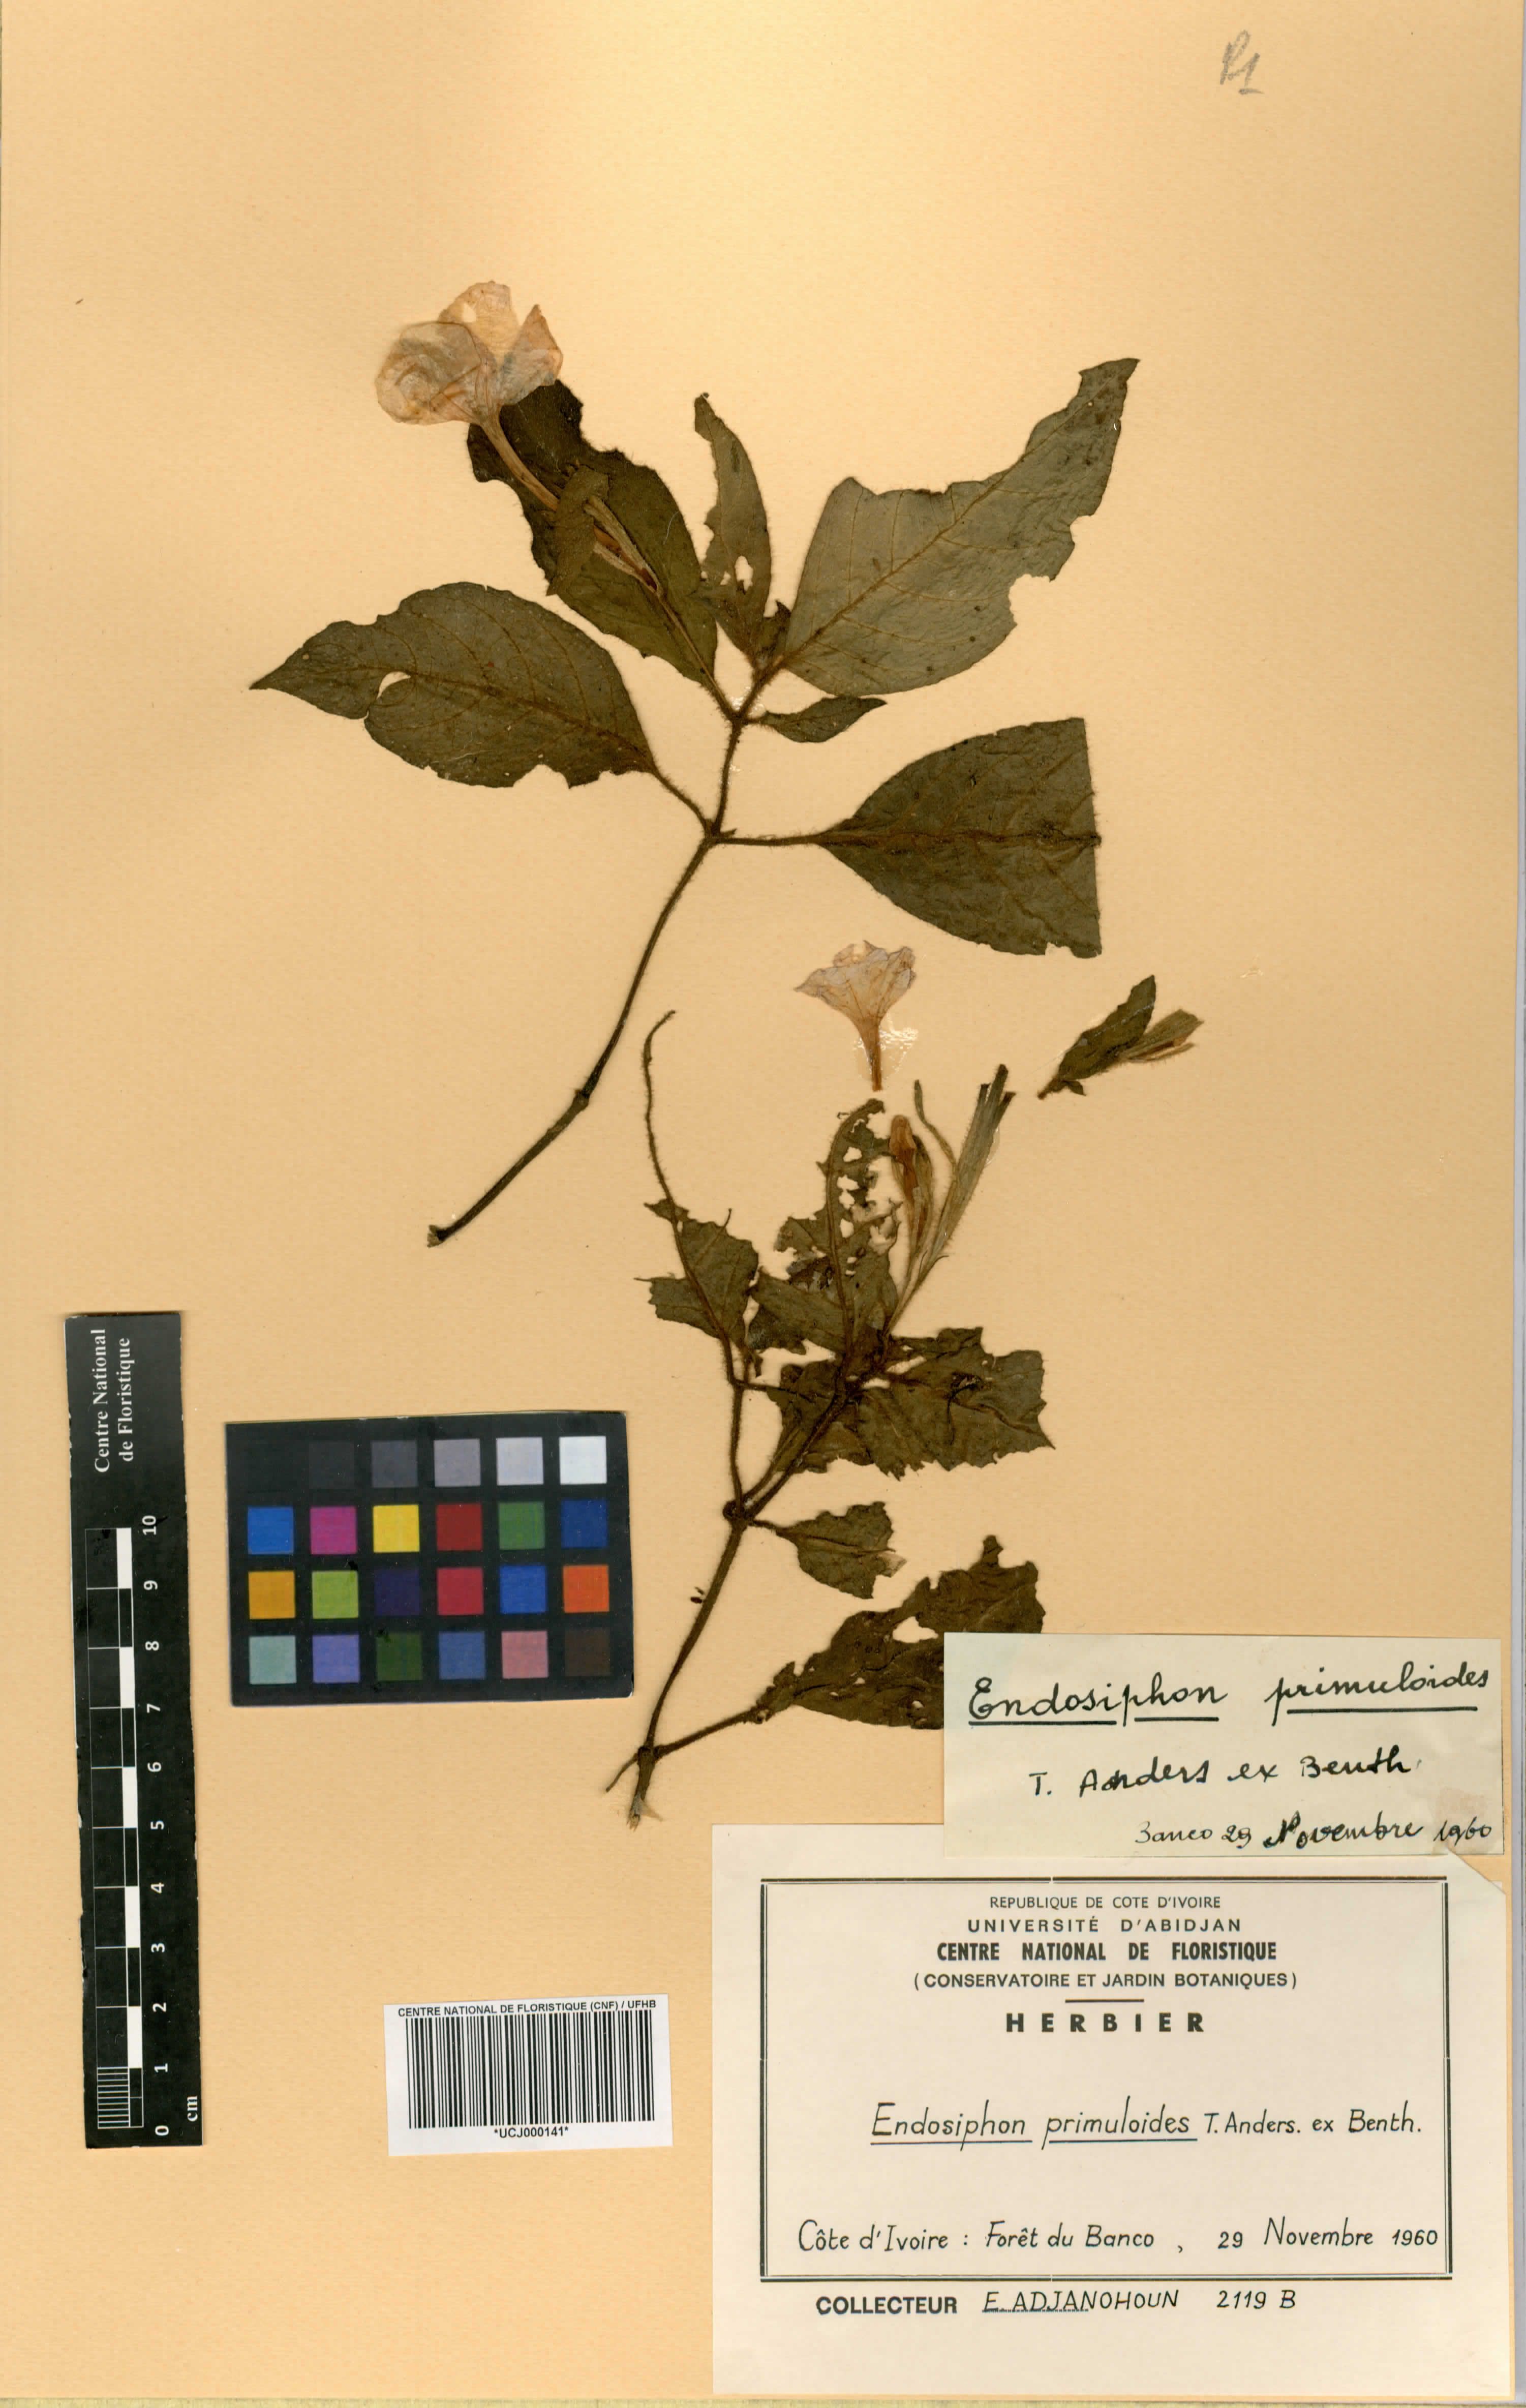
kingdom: Plantae
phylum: Tracheophyta
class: Magnoliopsida
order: Lamiales
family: Acanthaceae
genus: Ruellia
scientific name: Ruellia primuloides
